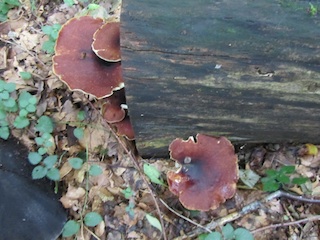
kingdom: Fungi
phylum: Basidiomycota
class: Agaricomycetes
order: Polyporales
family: Polyporaceae
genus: Picipes
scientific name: Picipes badius
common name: kastaniebrun stilkporesvamp
